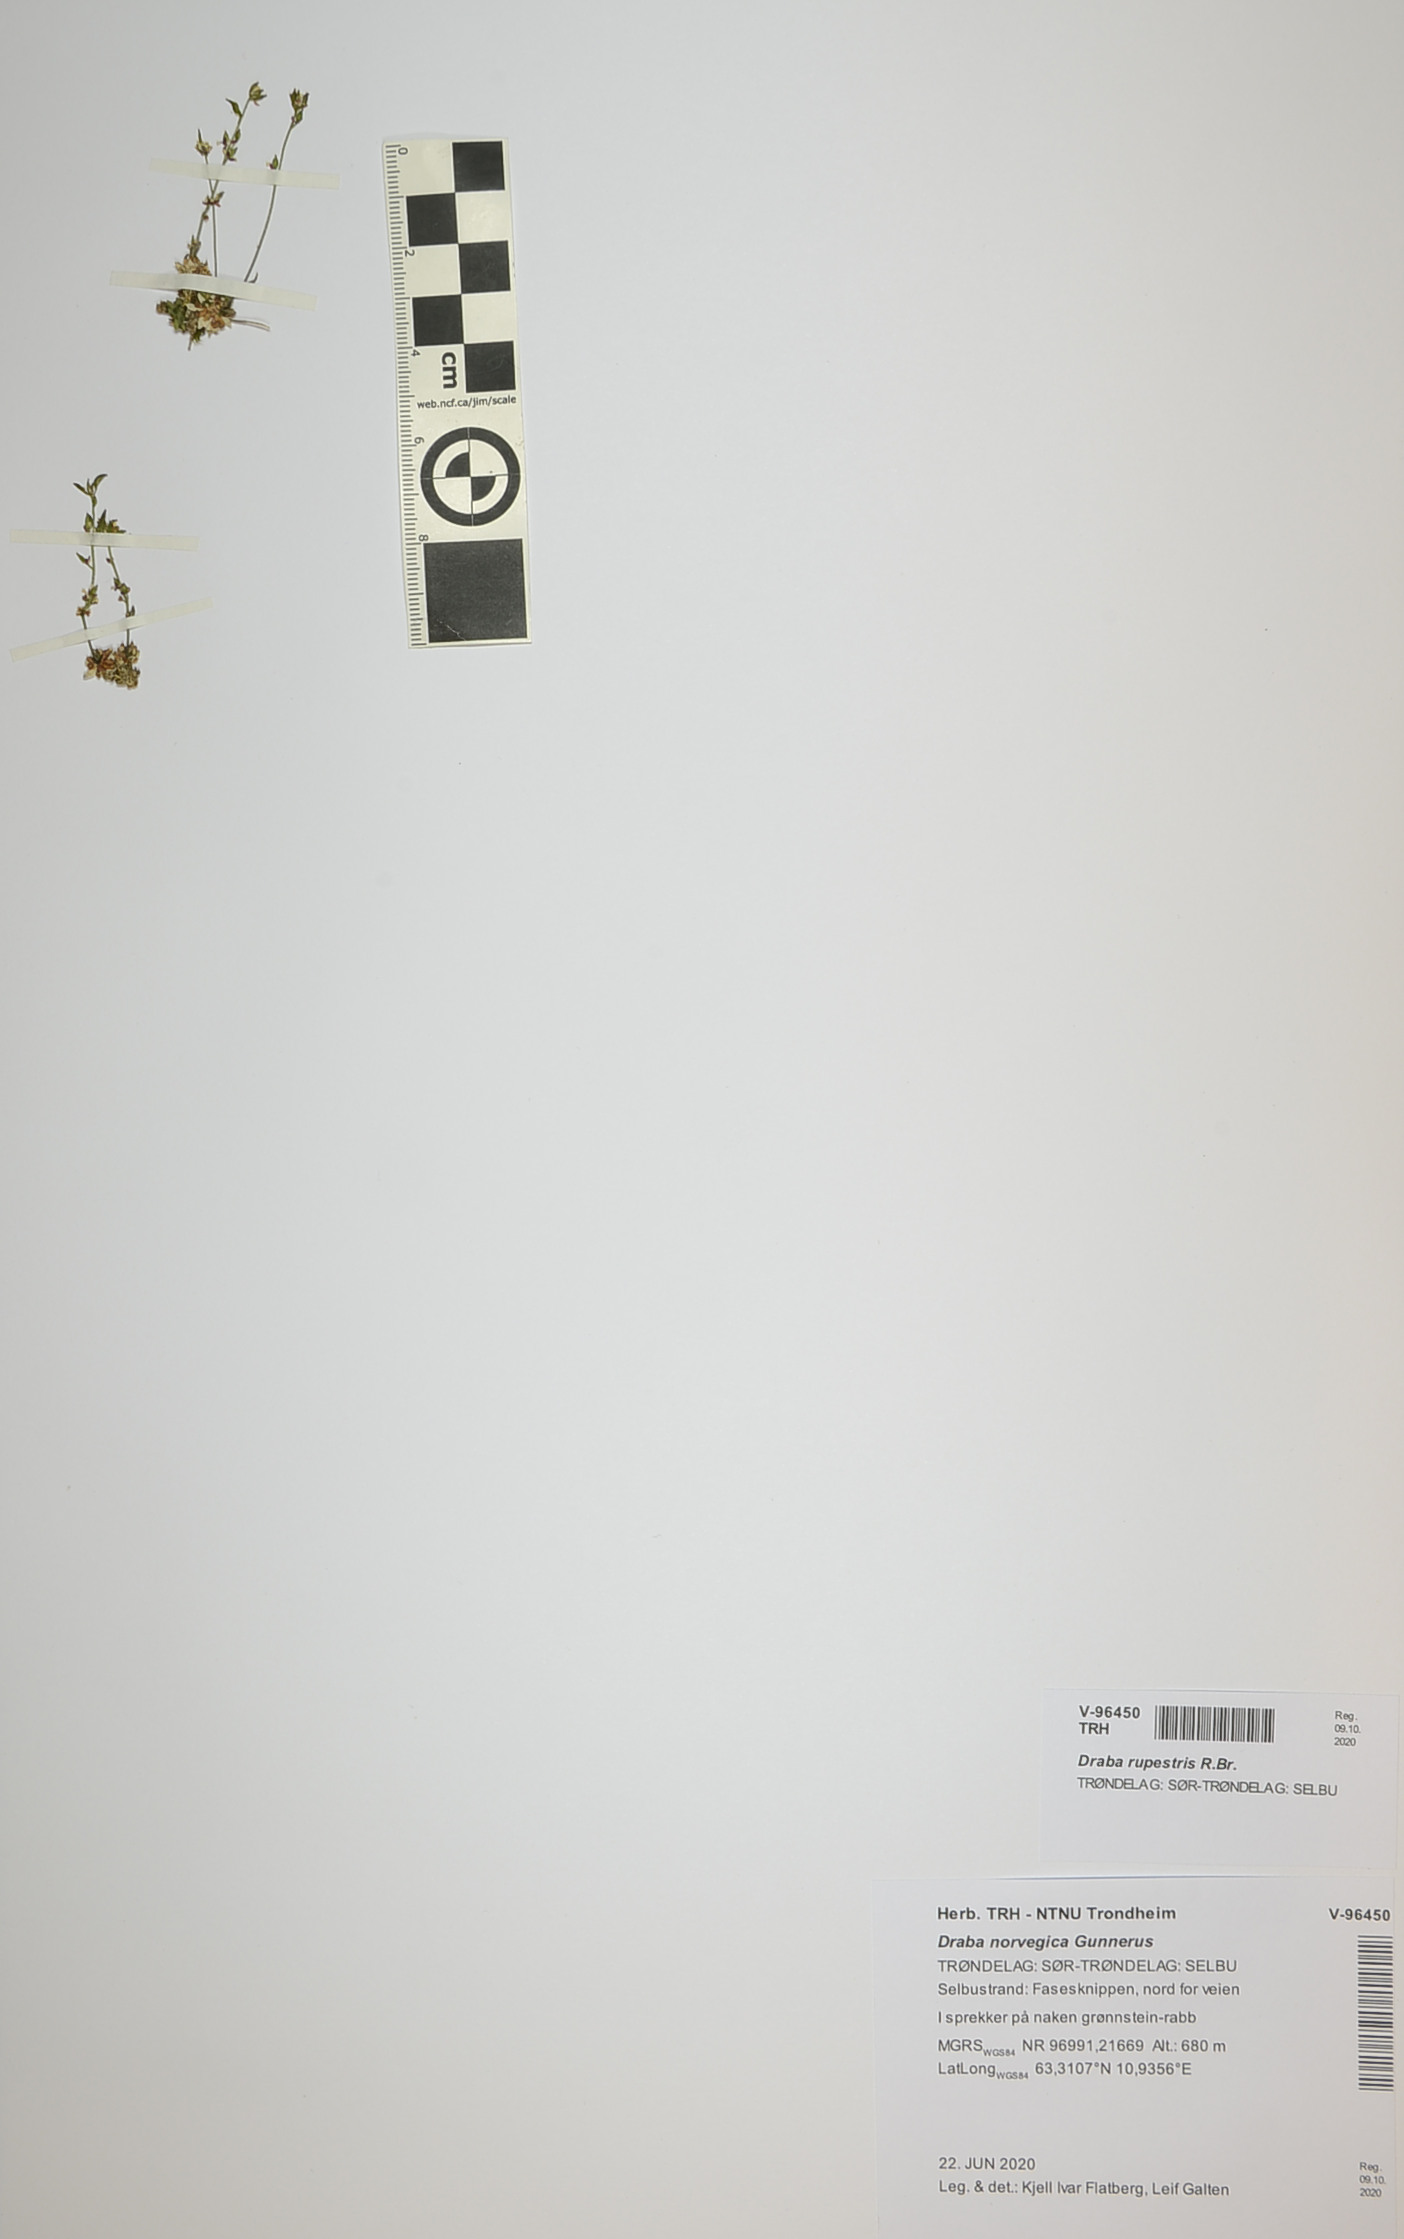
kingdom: Plantae
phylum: Tracheophyta
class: Magnoliopsida
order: Brassicales
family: Brassicaceae
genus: Draba
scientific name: Draba norvegica
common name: Rock whitlowgrass
